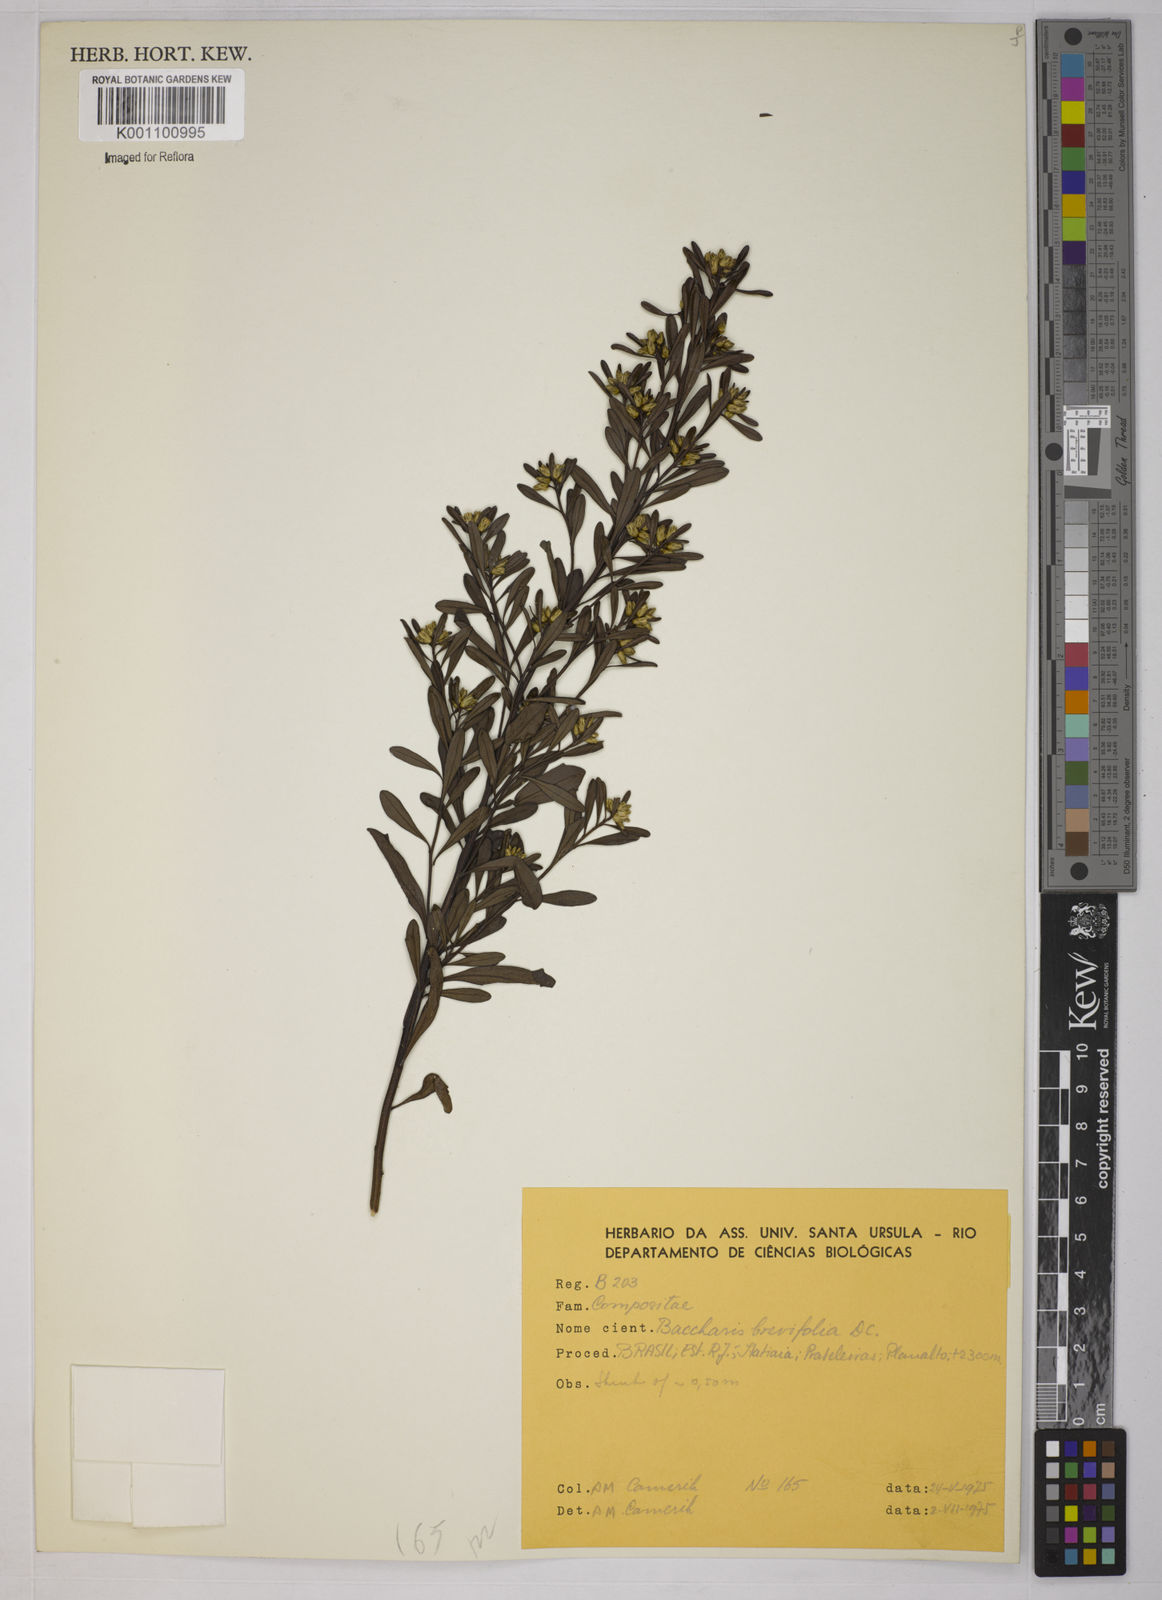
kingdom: Plantae
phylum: Tracheophyta
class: Magnoliopsida
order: Asterales
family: Asteraceae
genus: Baccharis
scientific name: Baccharis brevifolia
